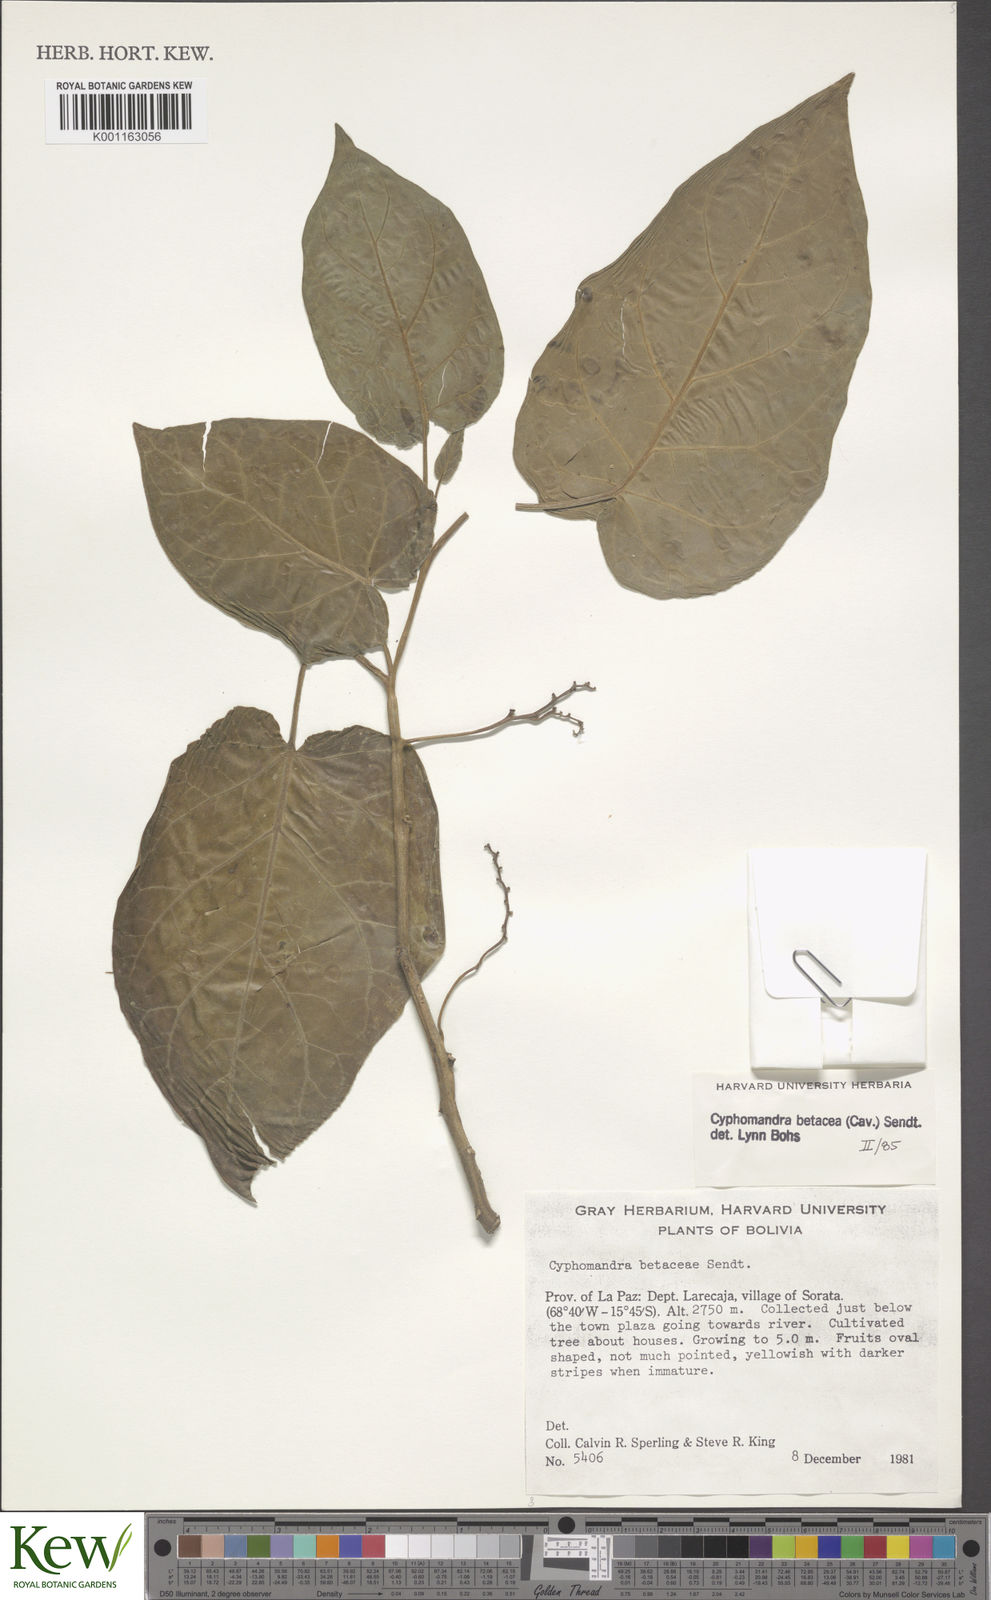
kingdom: Plantae
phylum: Tracheophyta
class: Magnoliopsida
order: Solanales
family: Solanaceae
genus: Solanum
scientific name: Solanum betaceum
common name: Tamarillo
